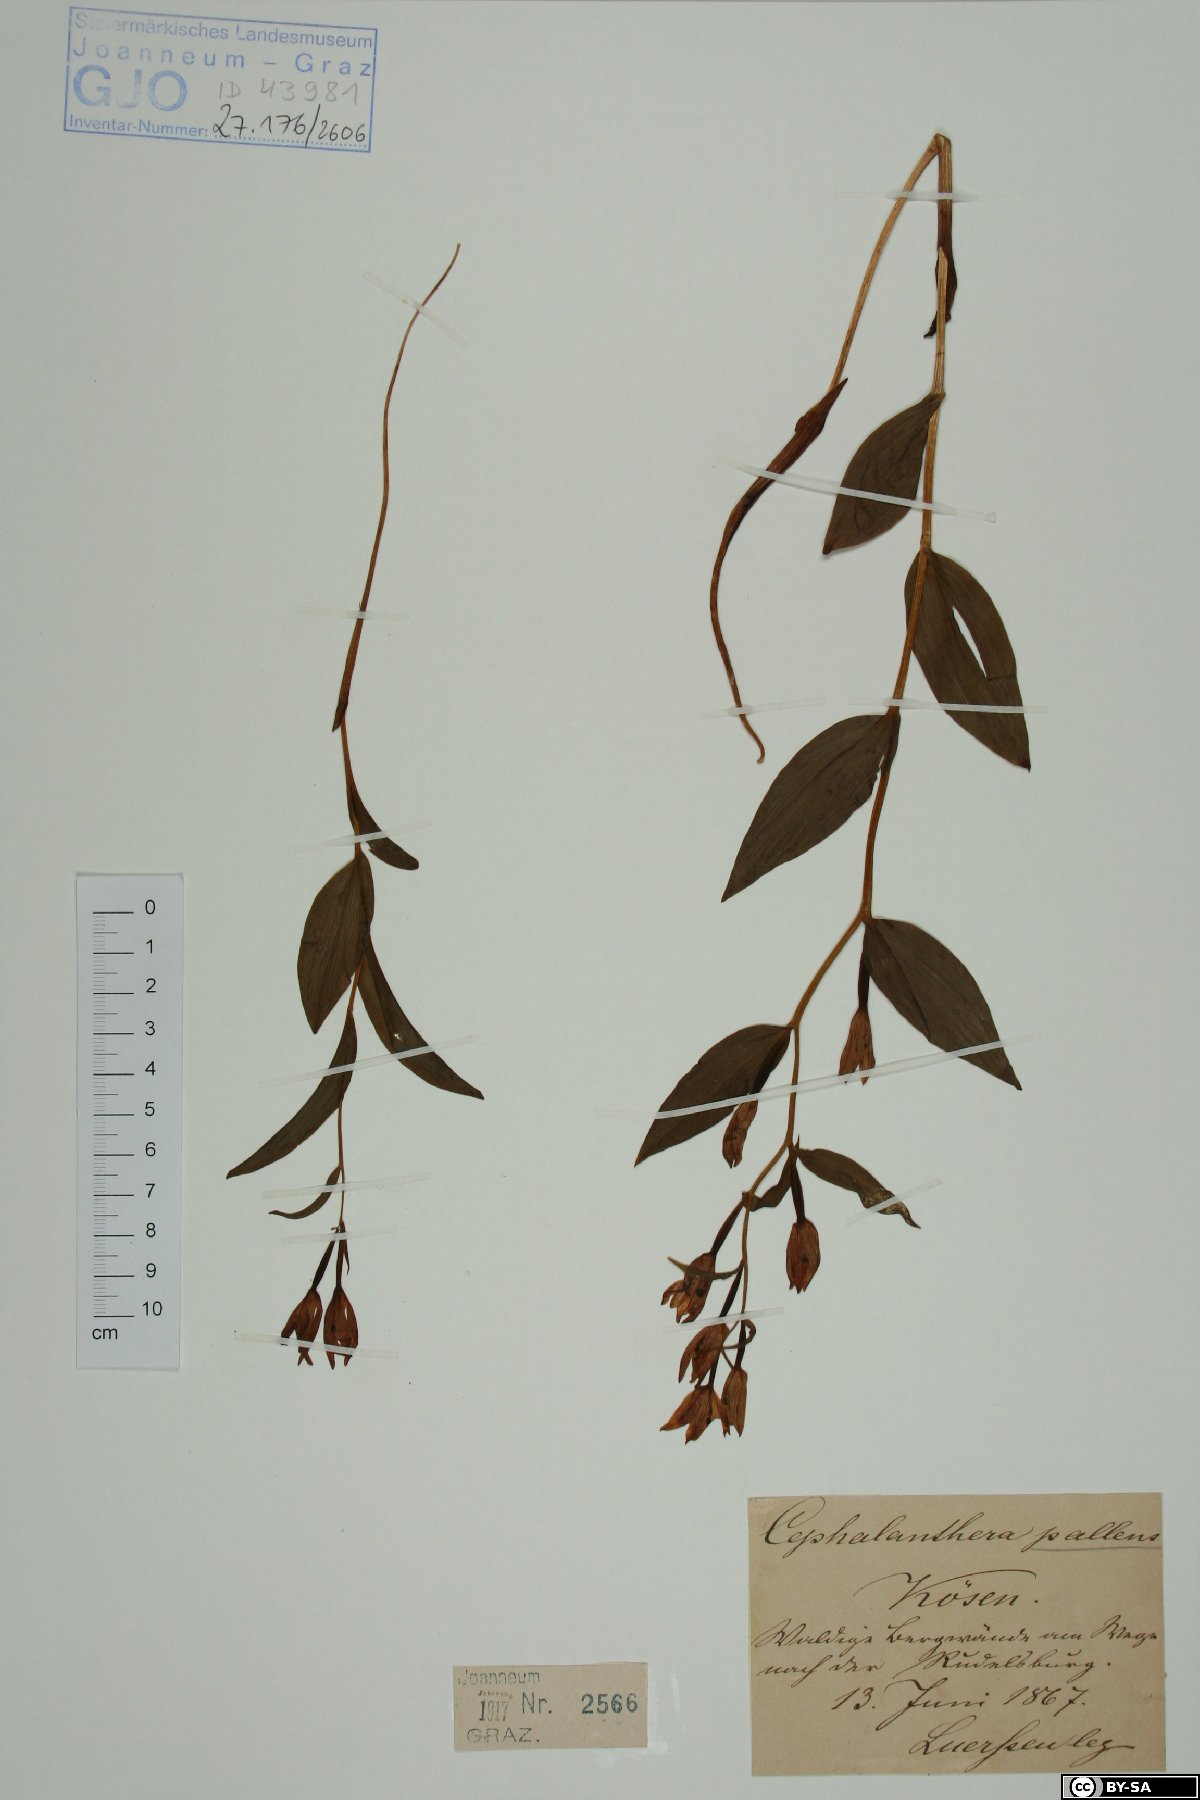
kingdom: Plantae
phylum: Tracheophyta
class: Liliopsida
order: Asparagales
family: Orchidaceae
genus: Cephalanthera
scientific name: Cephalanthera longifolia
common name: Narrow-leaved helleborine
